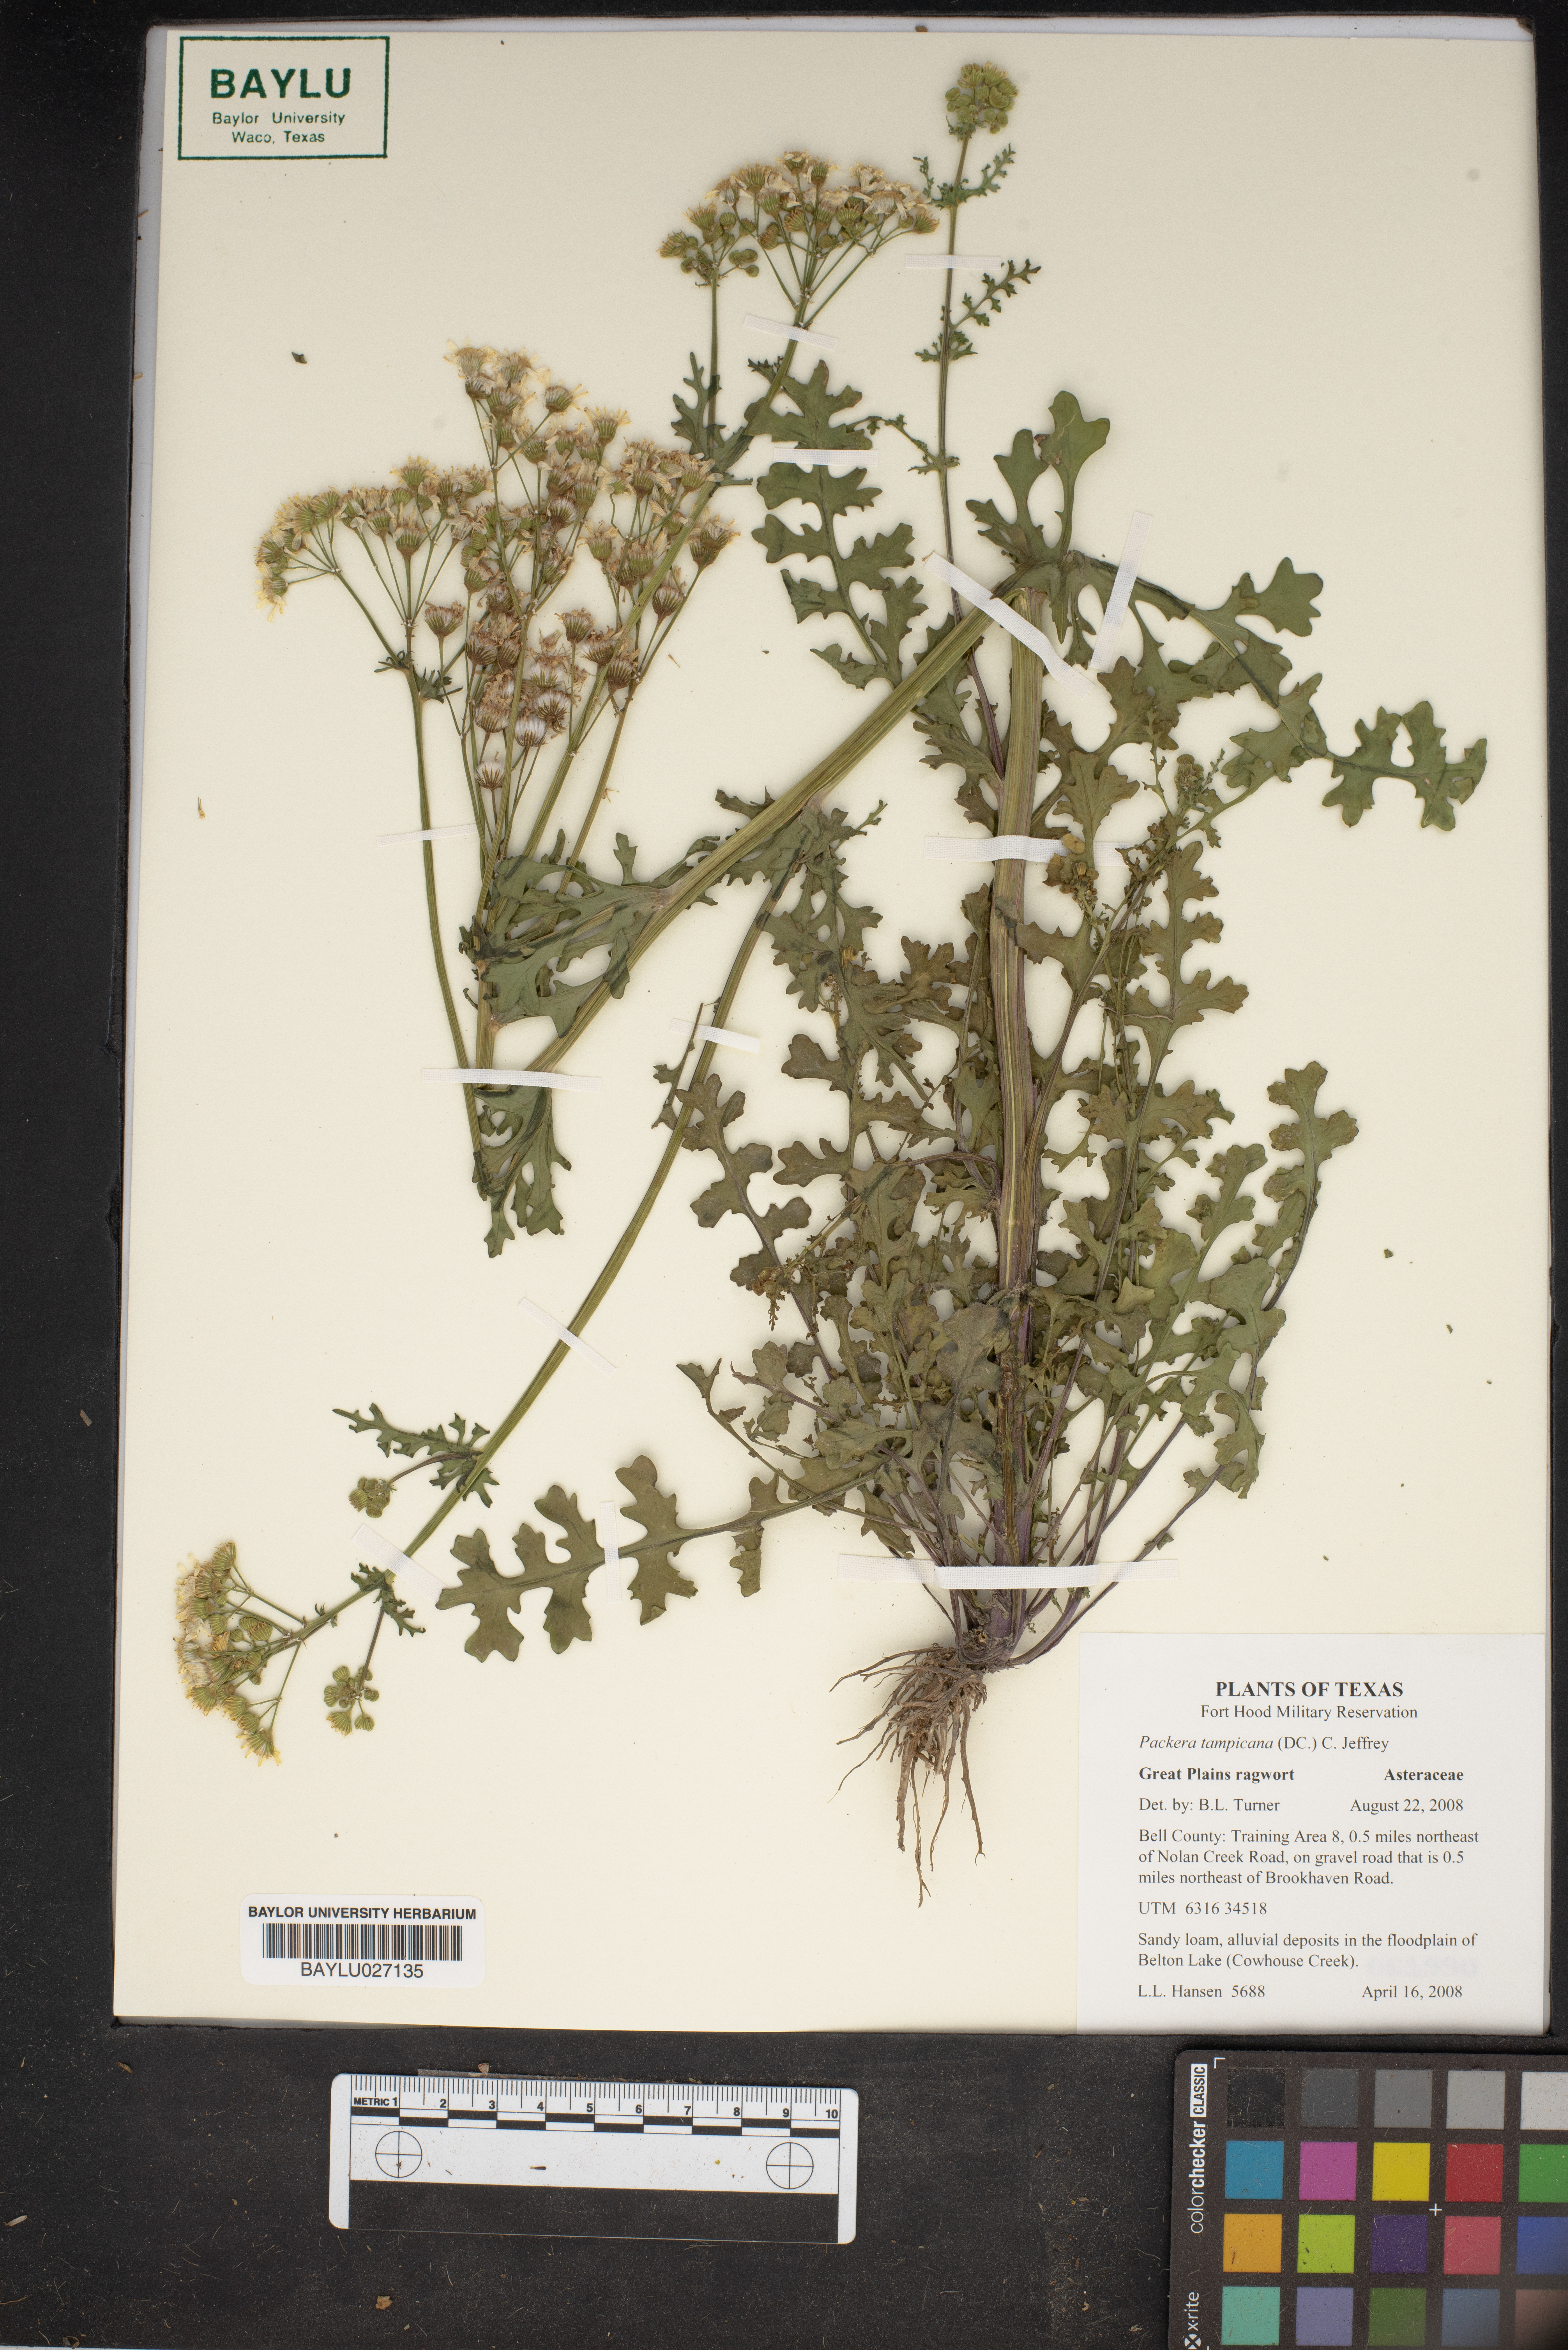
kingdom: Plantae
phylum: Tracheophyta
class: Magnoliopsida
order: Asterales
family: Asteraceae
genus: Packera
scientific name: Packera tampicana
